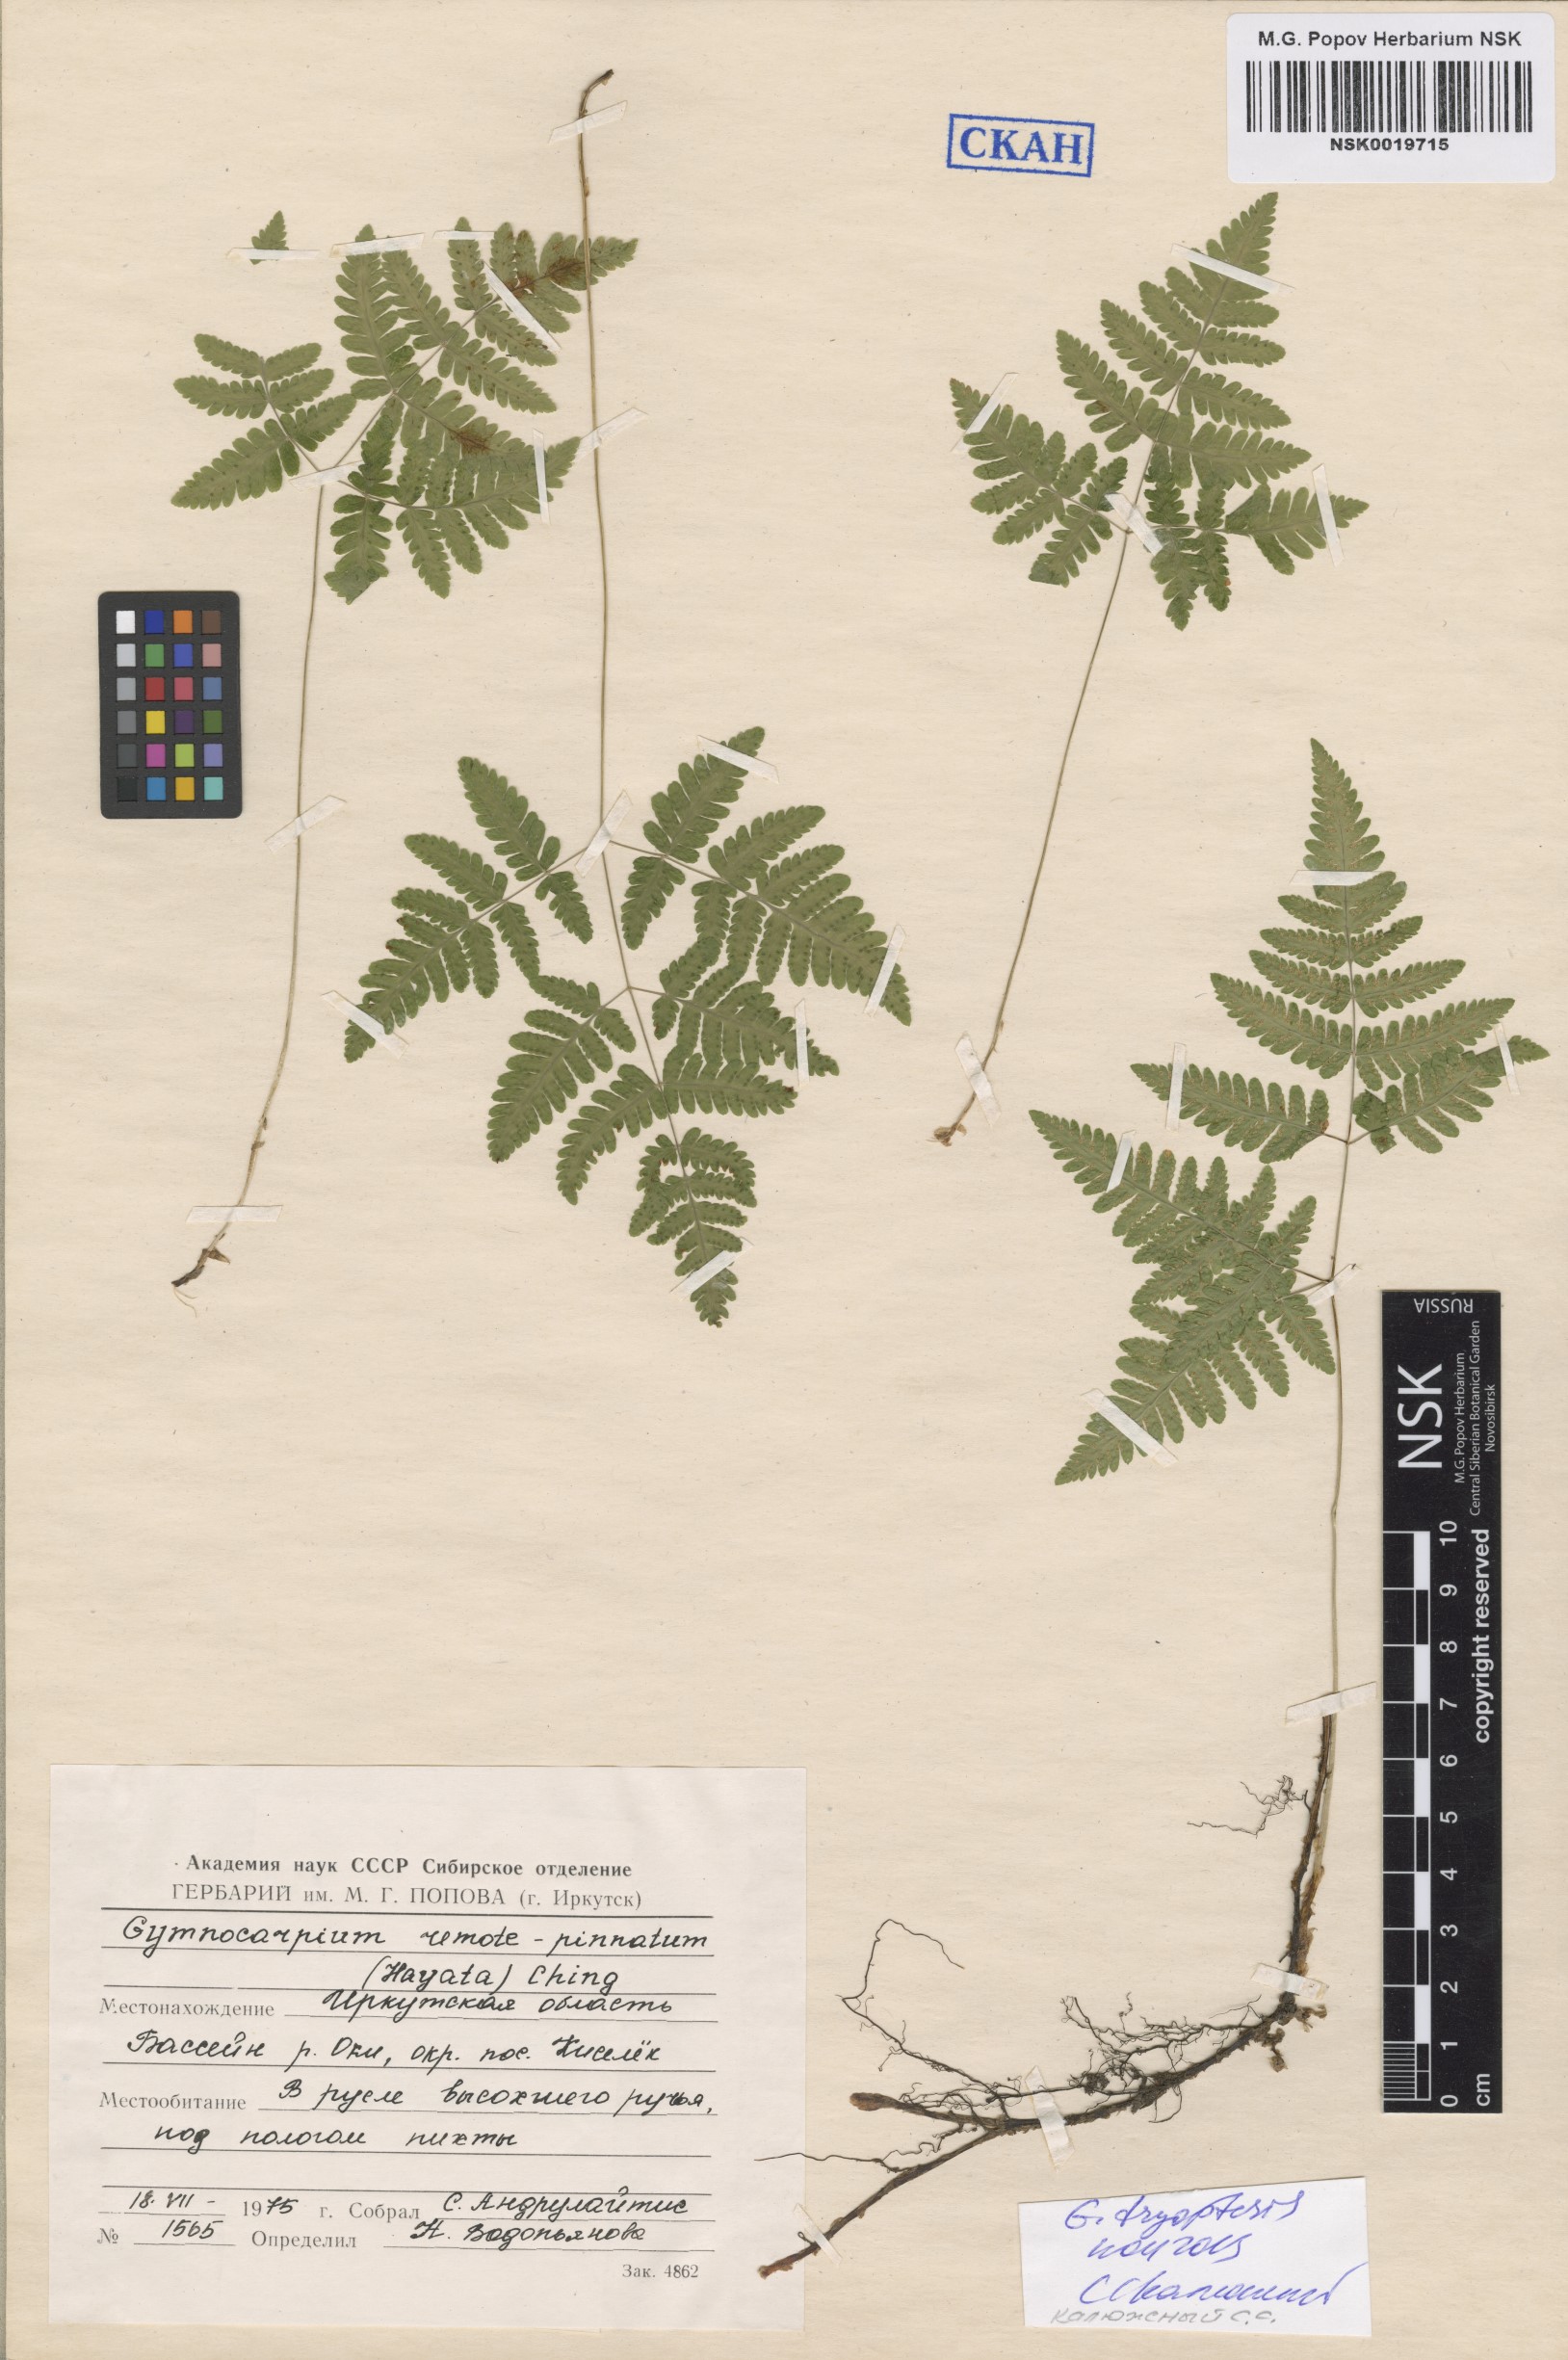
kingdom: Plantae
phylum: Tracheophyta
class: Polypodiopsida
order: Polypodiales
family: Cystopteridaceae
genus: Gymnocarpium
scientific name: Gymnocarpium dryopteris
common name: Oak fern
